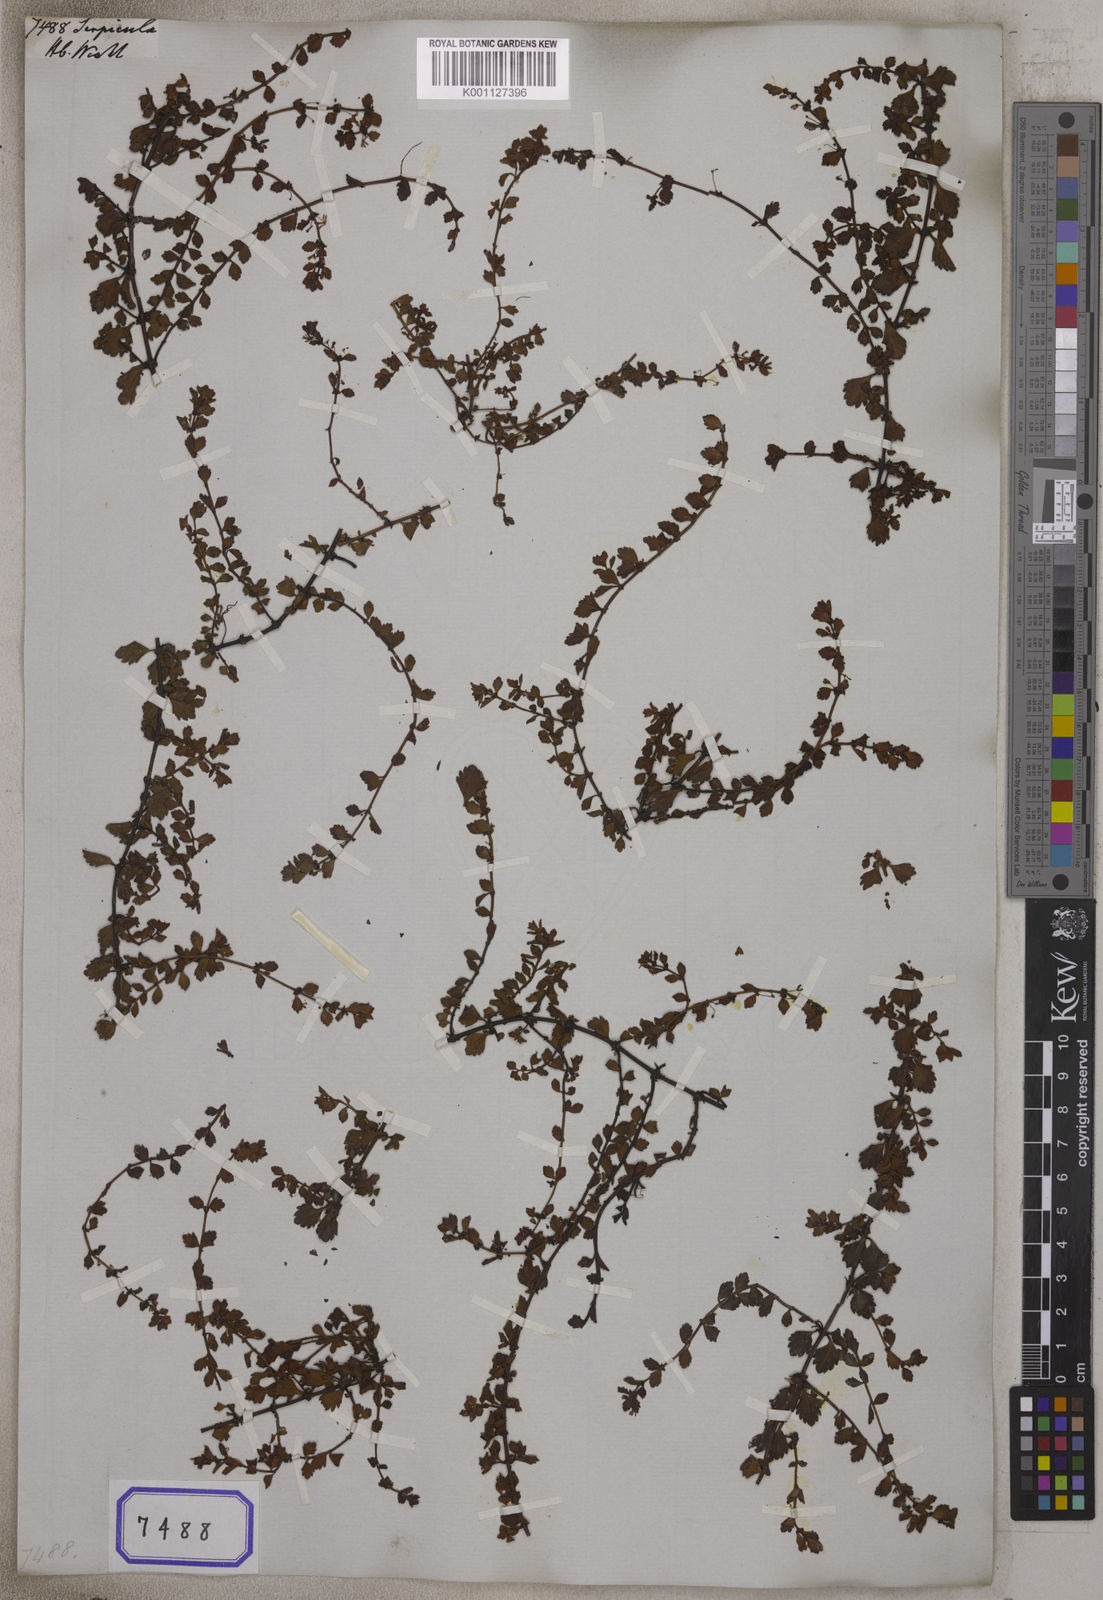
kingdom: Plantae
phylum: Tracheophyta
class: Magnoliopsida
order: Saxifragales
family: Haloragaceae
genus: Serpicula
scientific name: Serpicula
